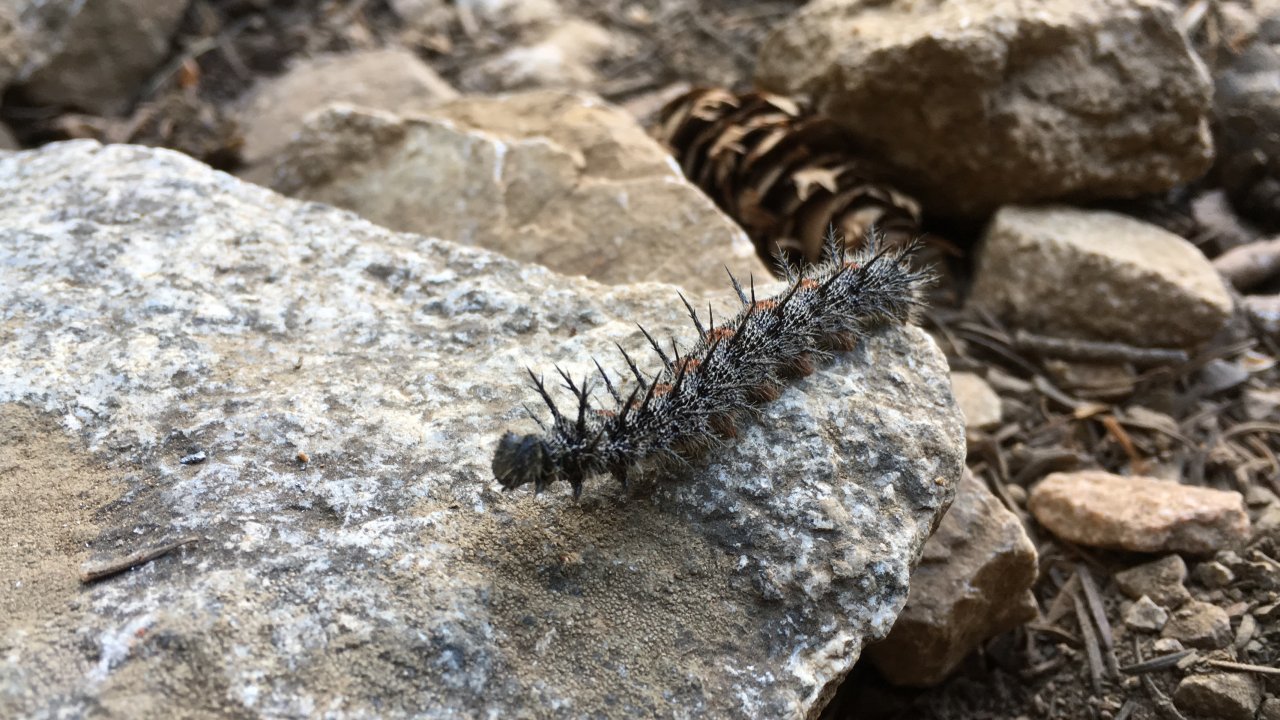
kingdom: Animalia
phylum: Arthropoda
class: Insecta
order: Lepidoptera
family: Nymphalidae
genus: Nymphalis
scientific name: Nymphalis antiopa
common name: Mourning Cloak
